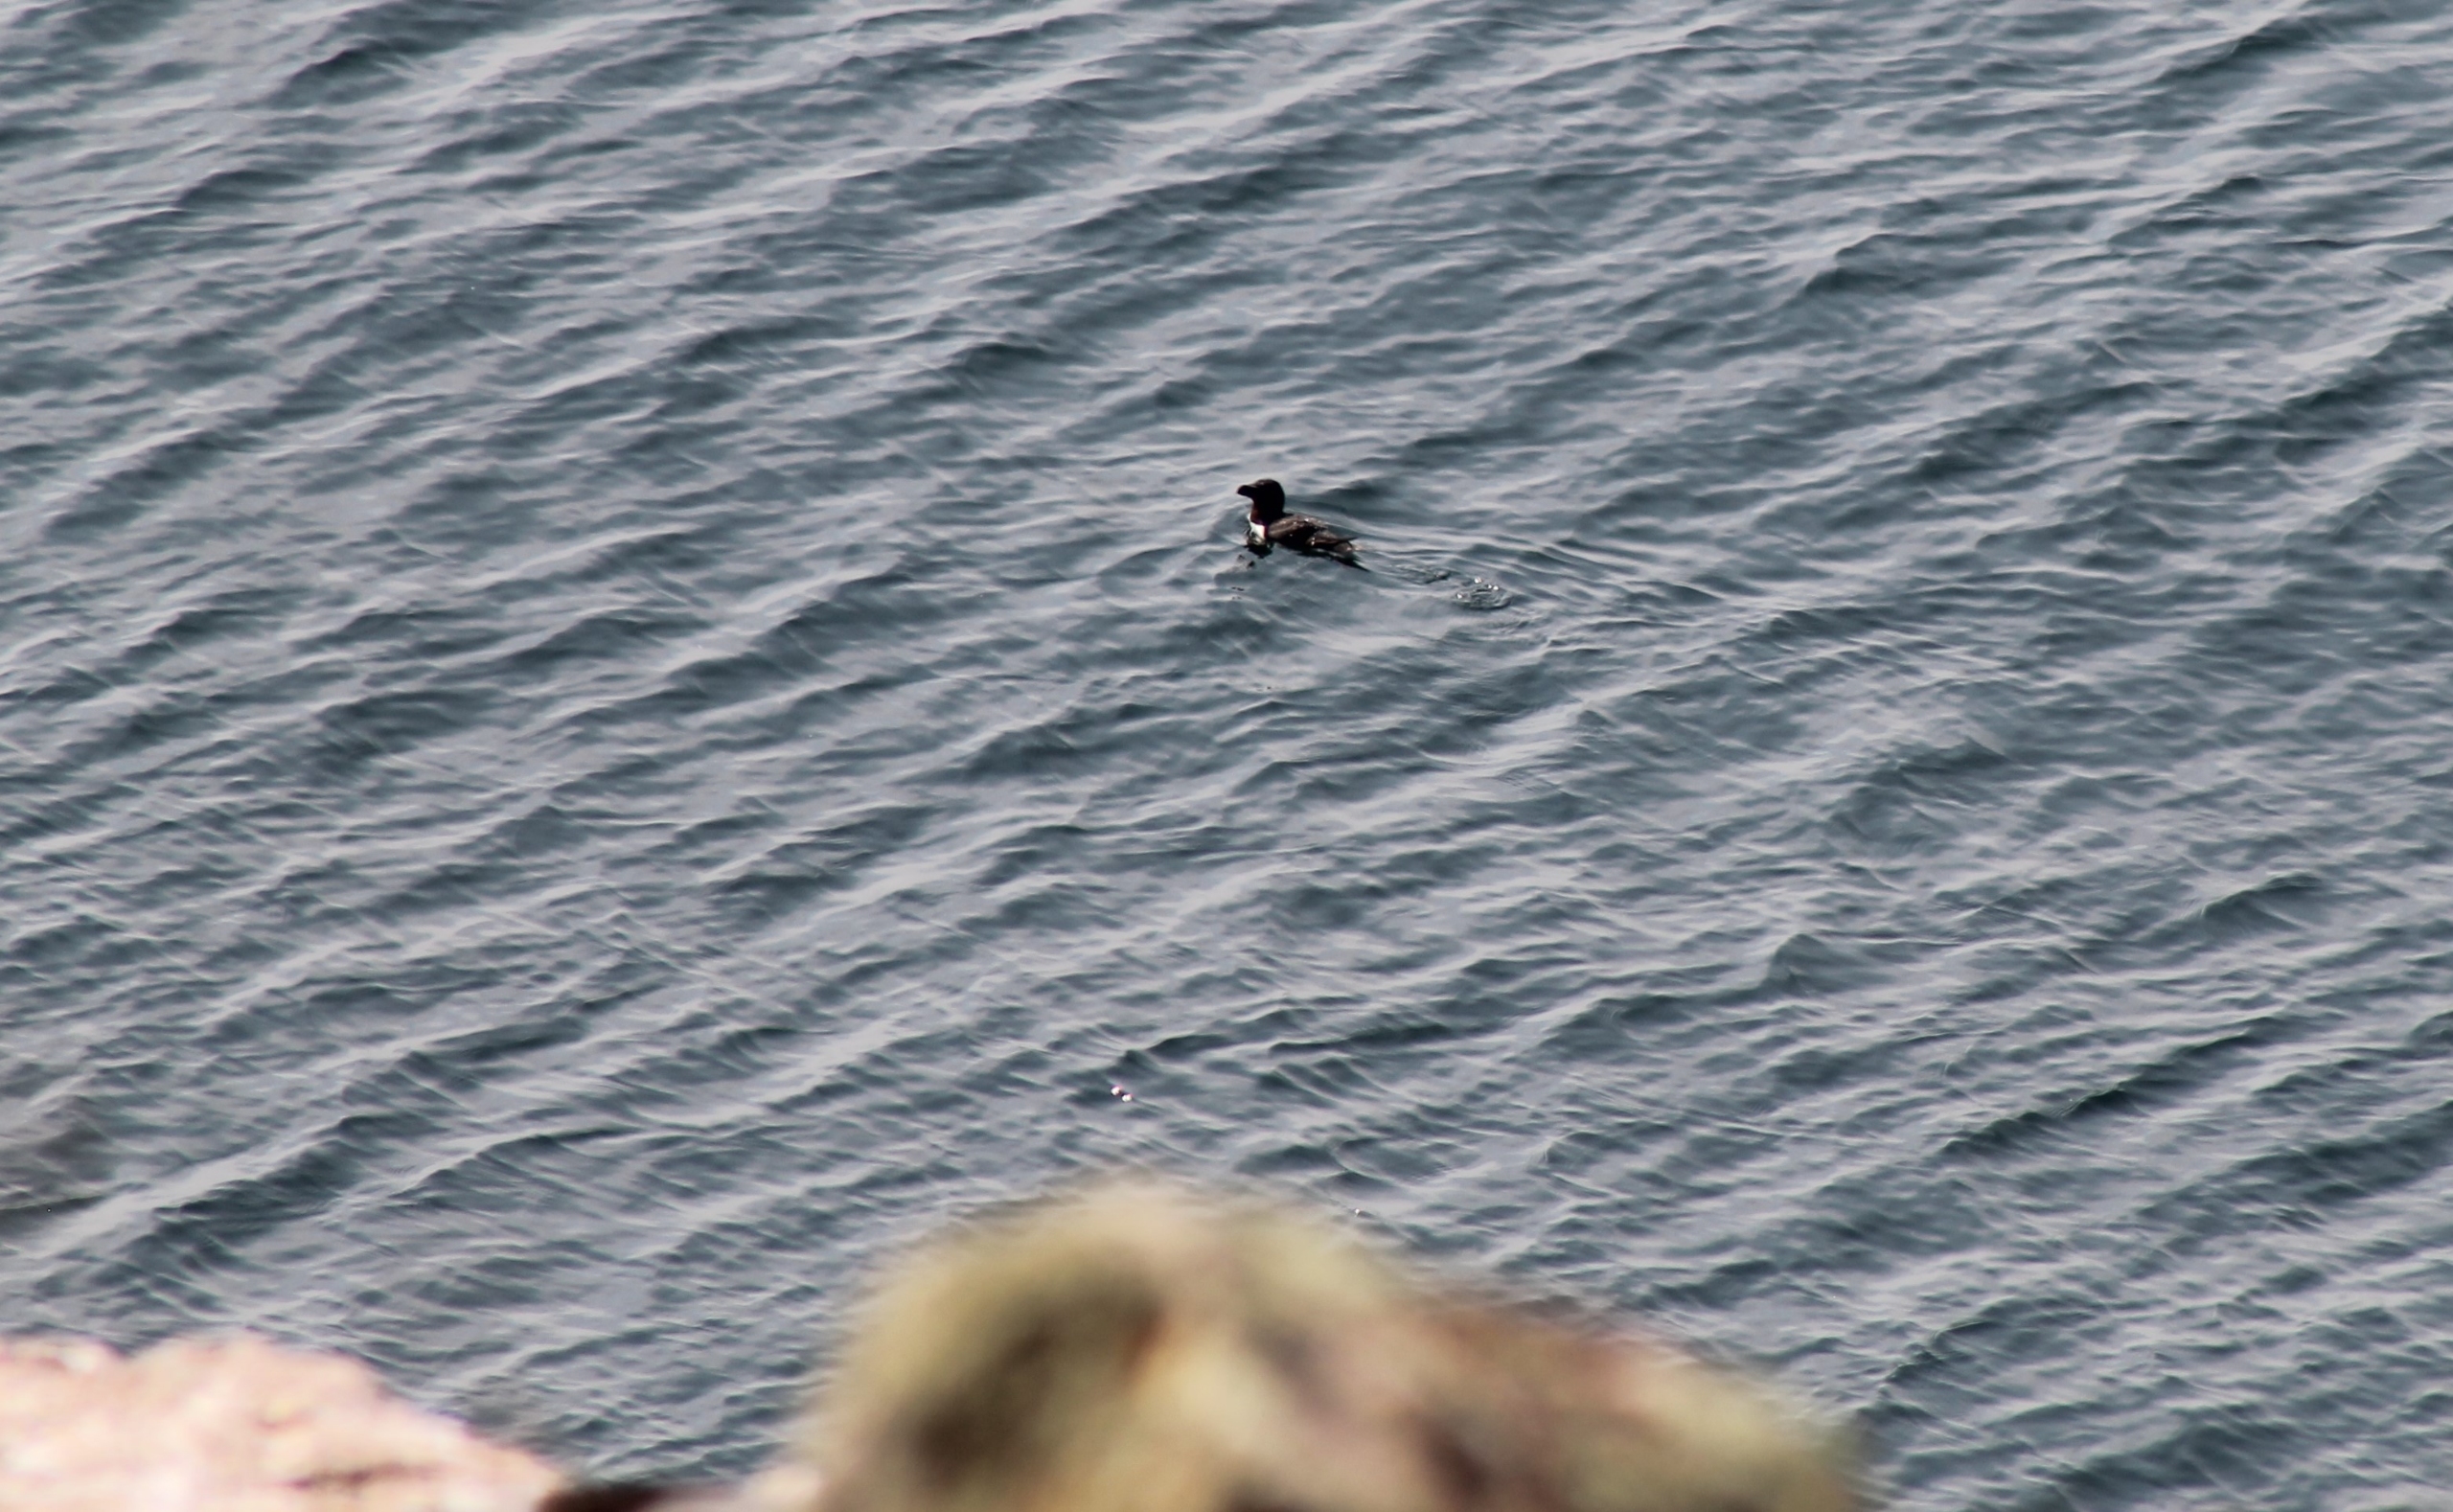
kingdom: Animalia
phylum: Chordata
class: Aves
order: Charadriiformes
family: Alcidae
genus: Alca
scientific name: Alca torda
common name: Alk
